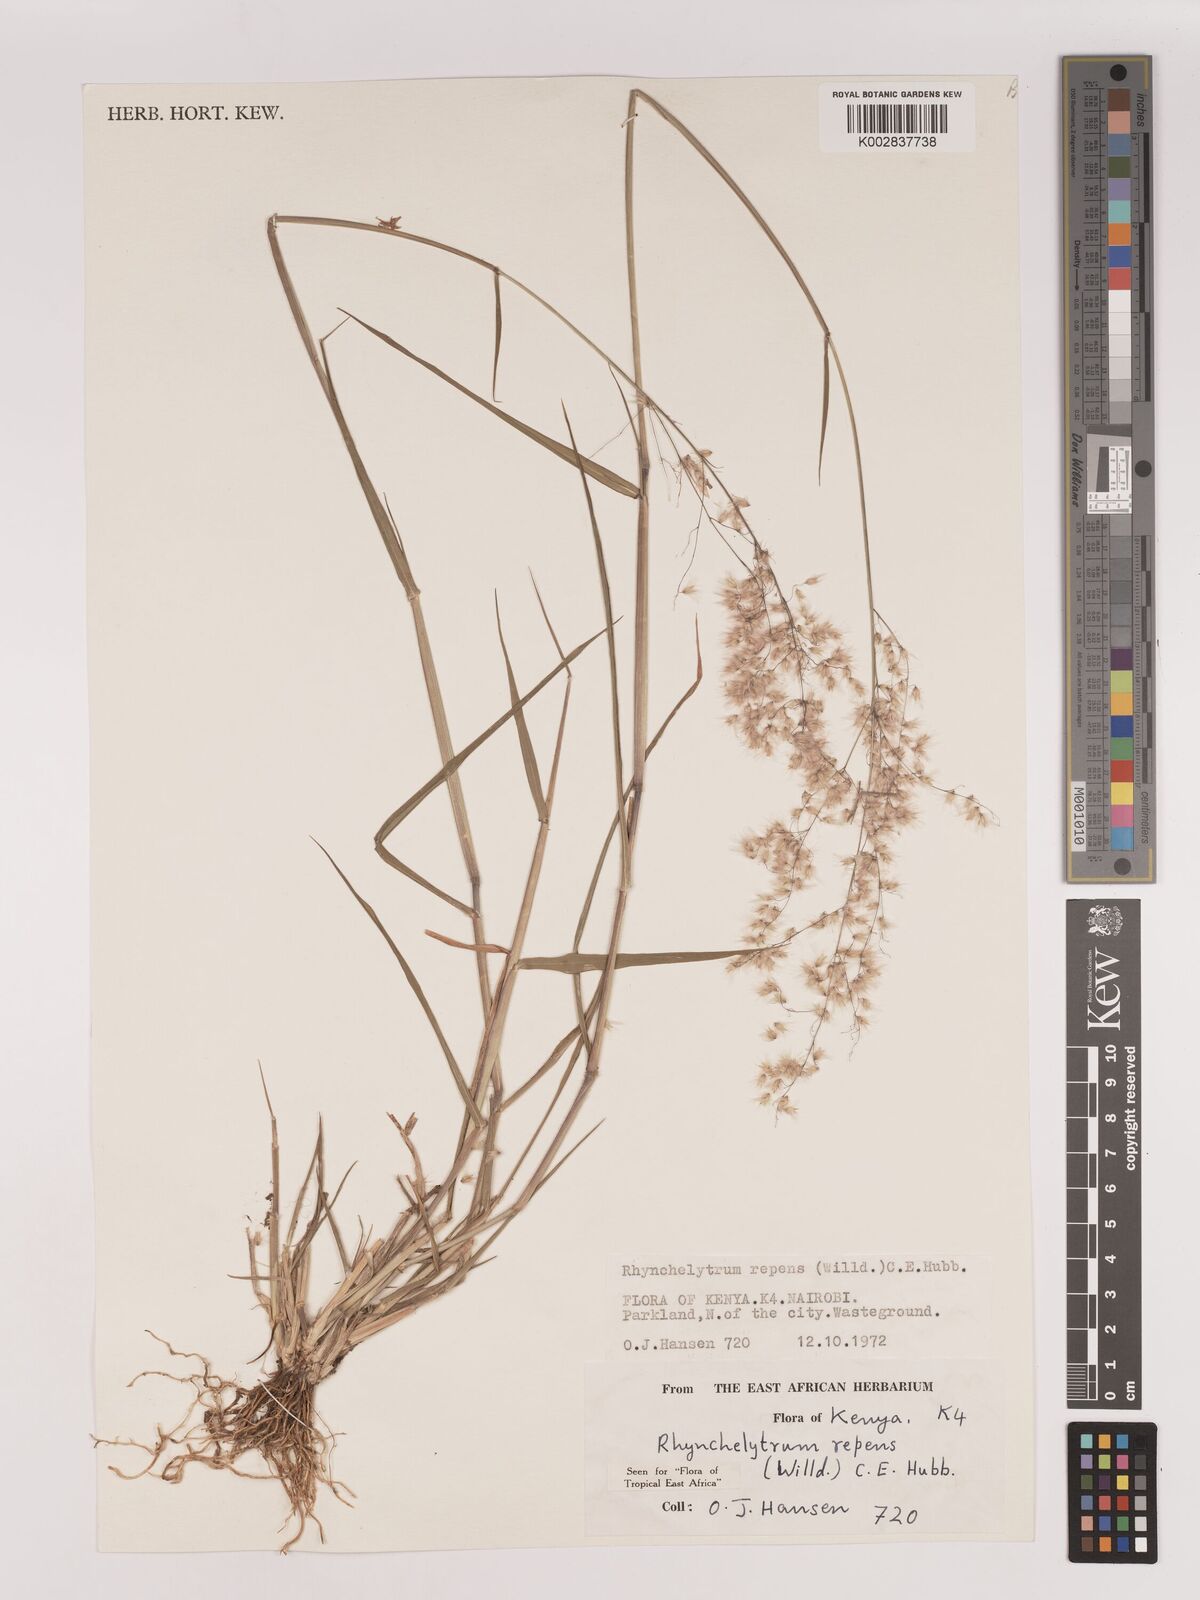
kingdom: Plantae
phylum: Tracheophyta
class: Liliopsida
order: Poales
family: Poaceae
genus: Melinis
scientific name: Melinis repens
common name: Rose natal grass
